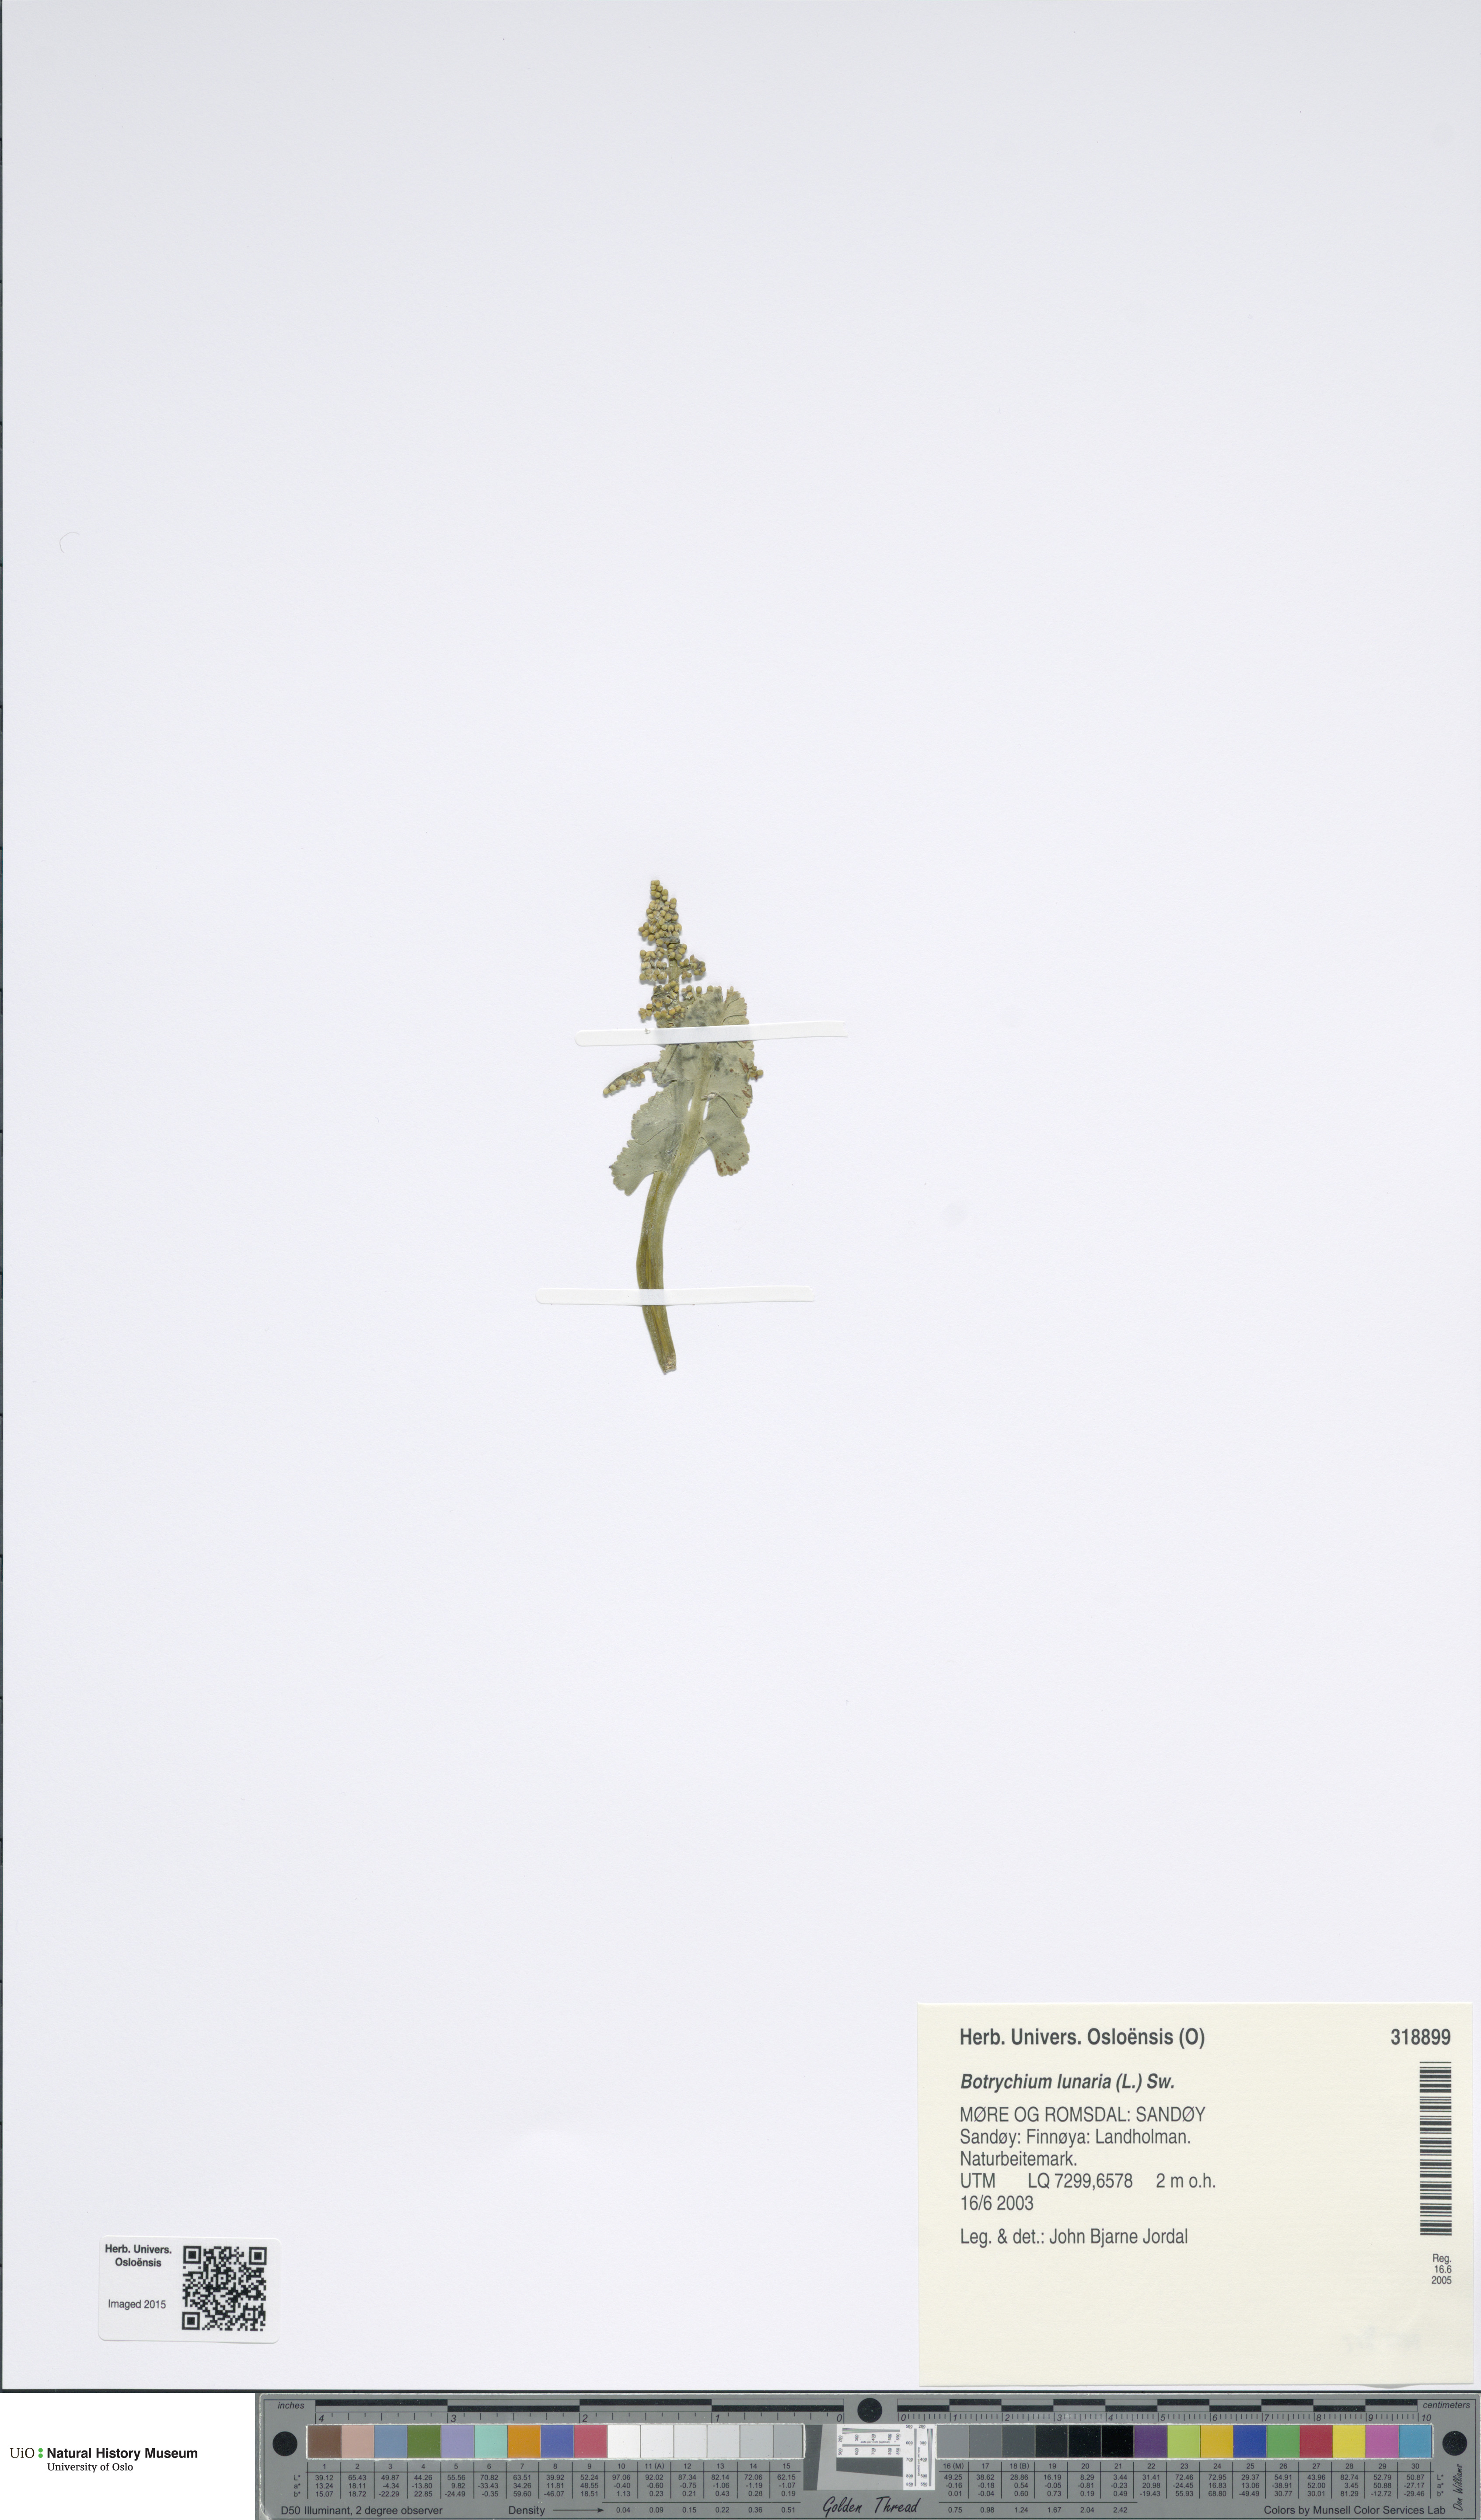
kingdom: Plantae
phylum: Tracheophyta
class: Polypodiopsida
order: Ophioglossales
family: Ophioglossaceae
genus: Botrychium
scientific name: Botrychium lunaria
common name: Moonwort
